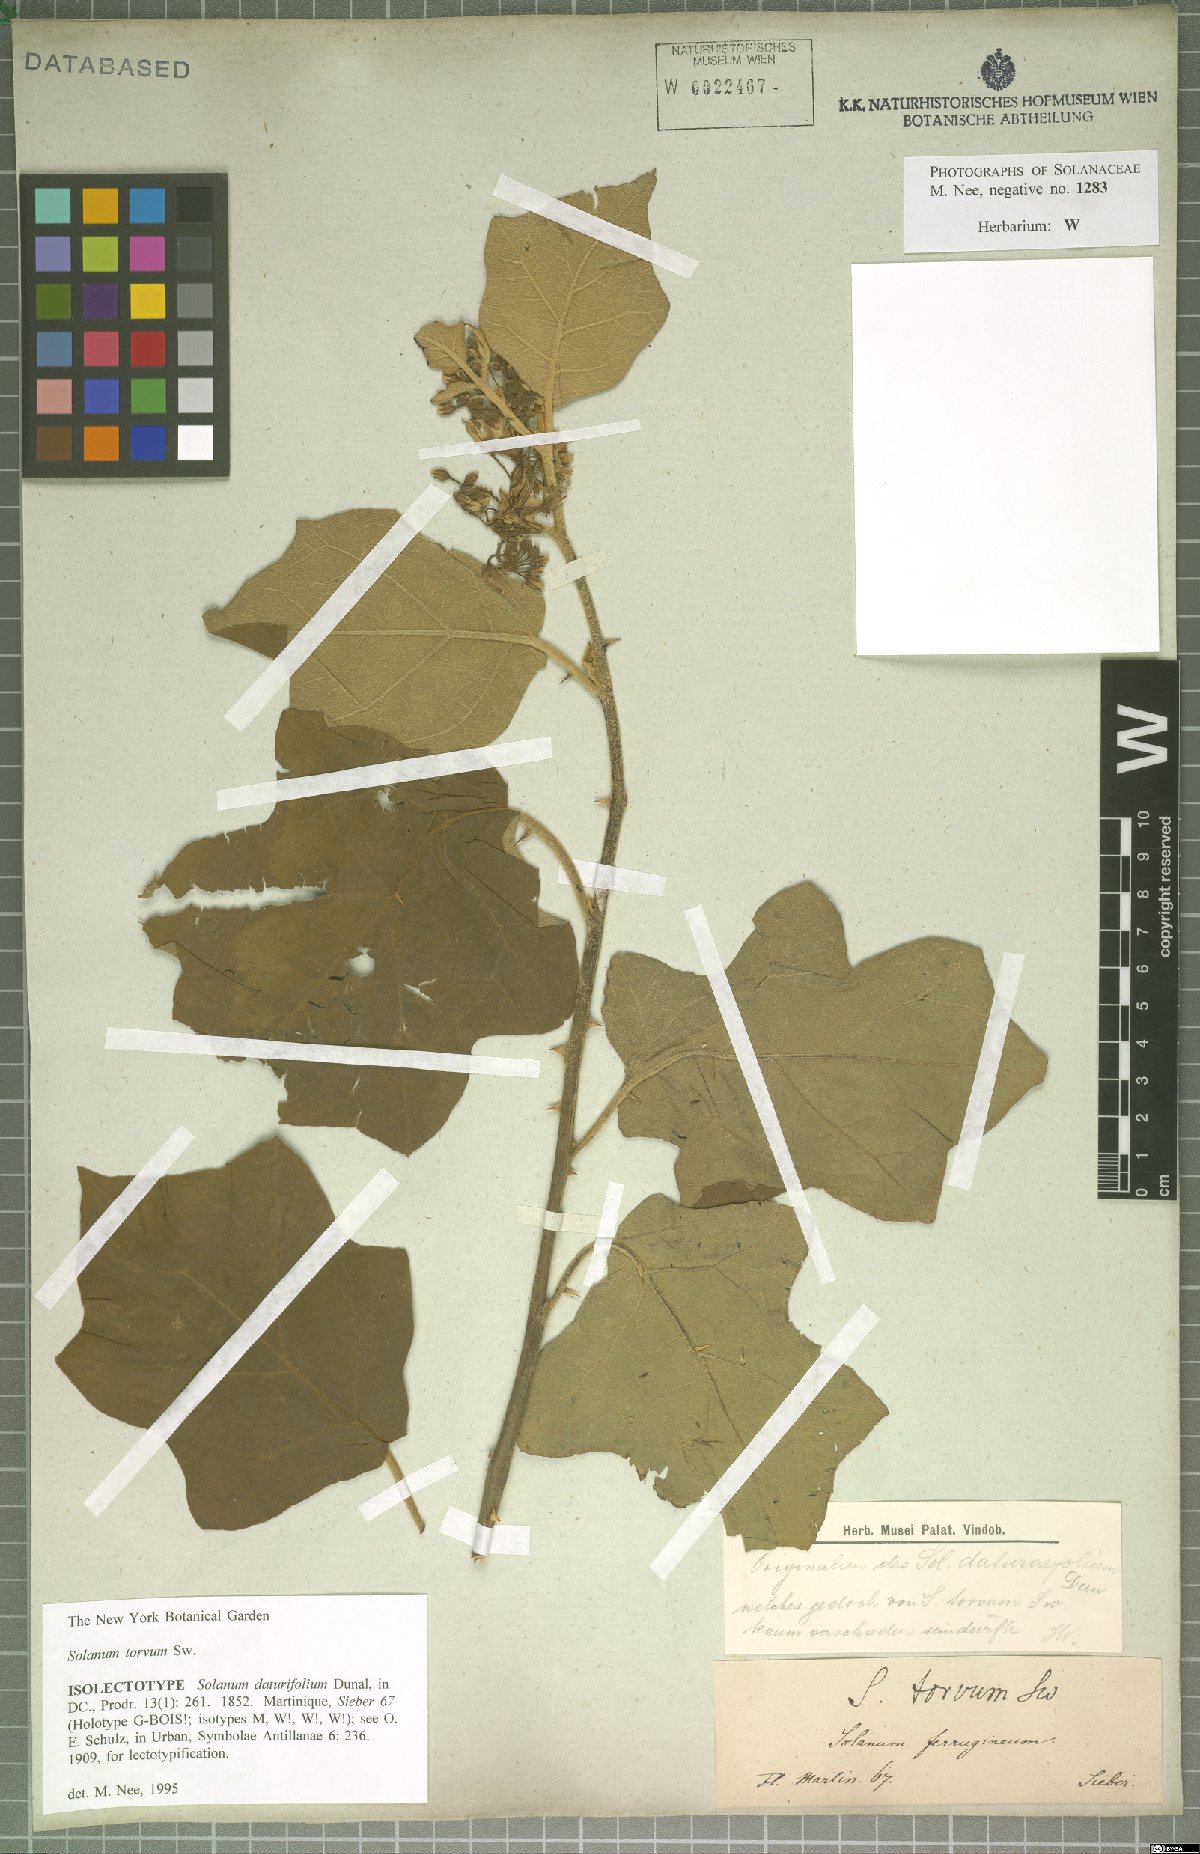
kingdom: Plantae
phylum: Tracheophyta
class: Magnoliopsida
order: Myrtales
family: Lythraceae
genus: Cuphea
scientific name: Cuphea lutescens
